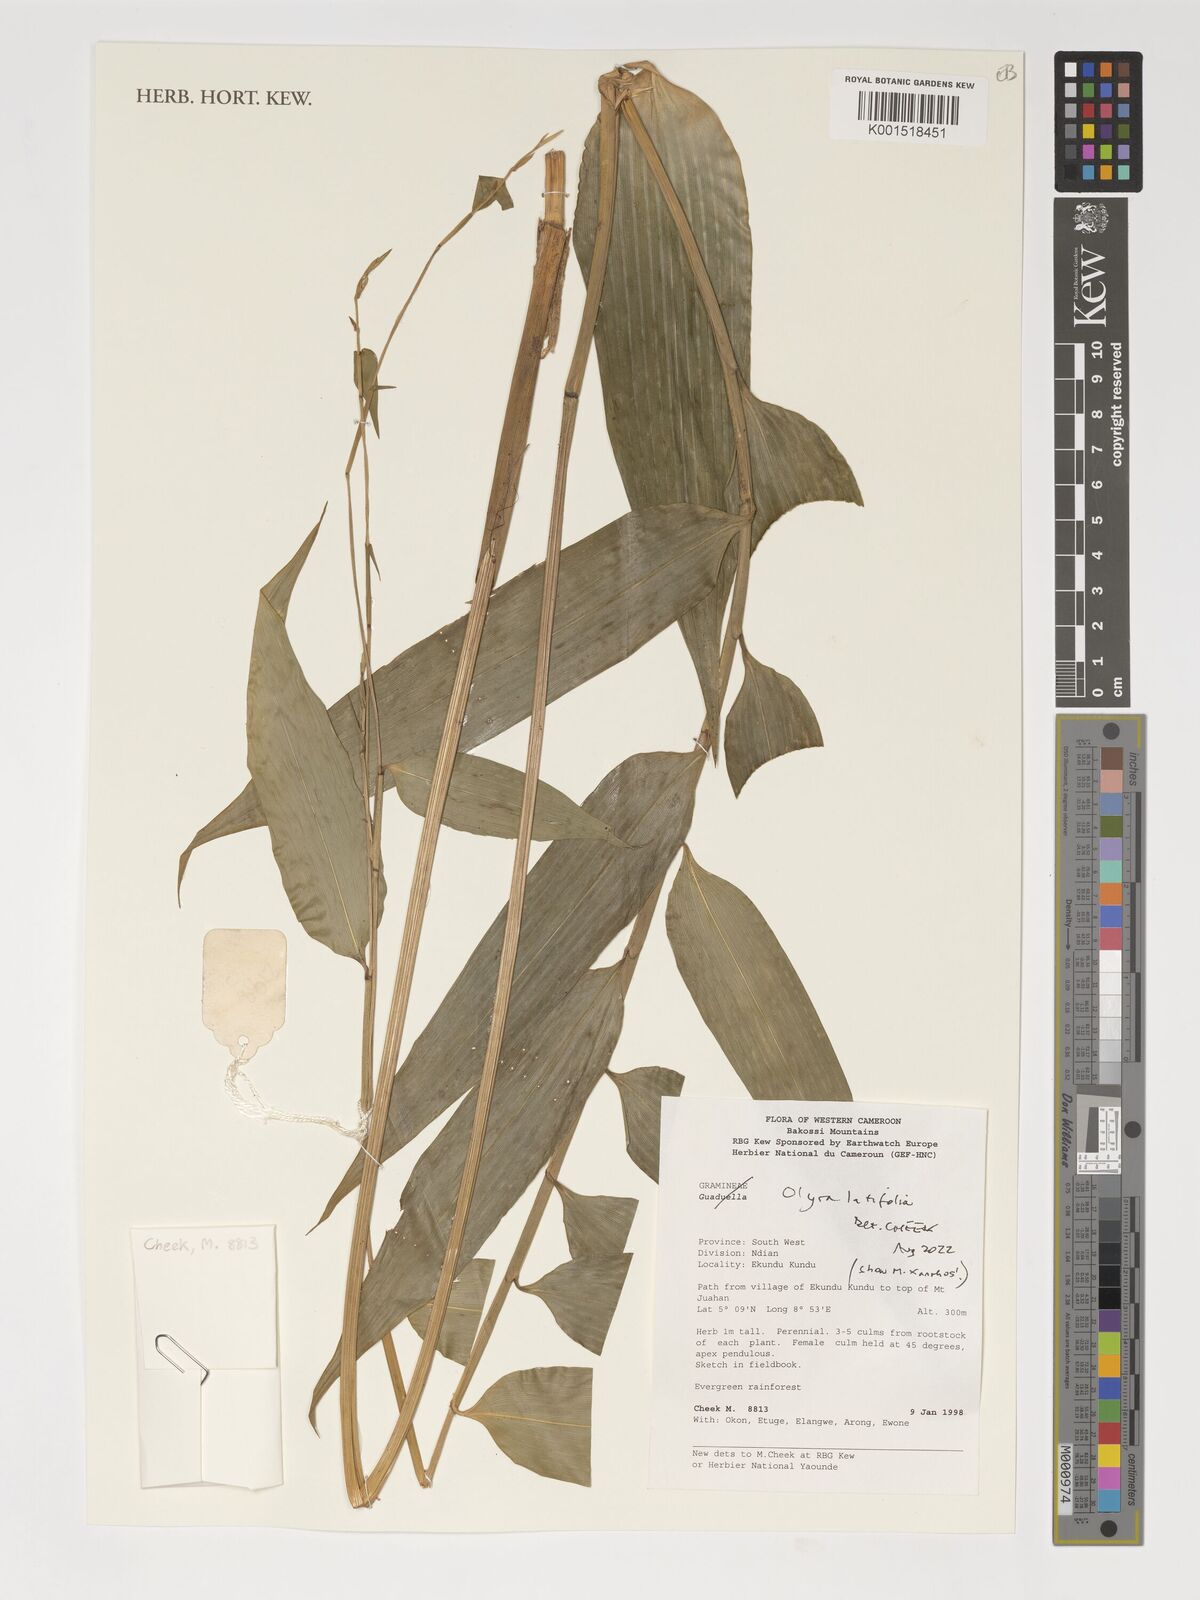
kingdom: Plantae
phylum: Tracheophyta
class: Liliopsida
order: Poales
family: Poaceae
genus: Olyra
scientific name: Olyra latifolia
